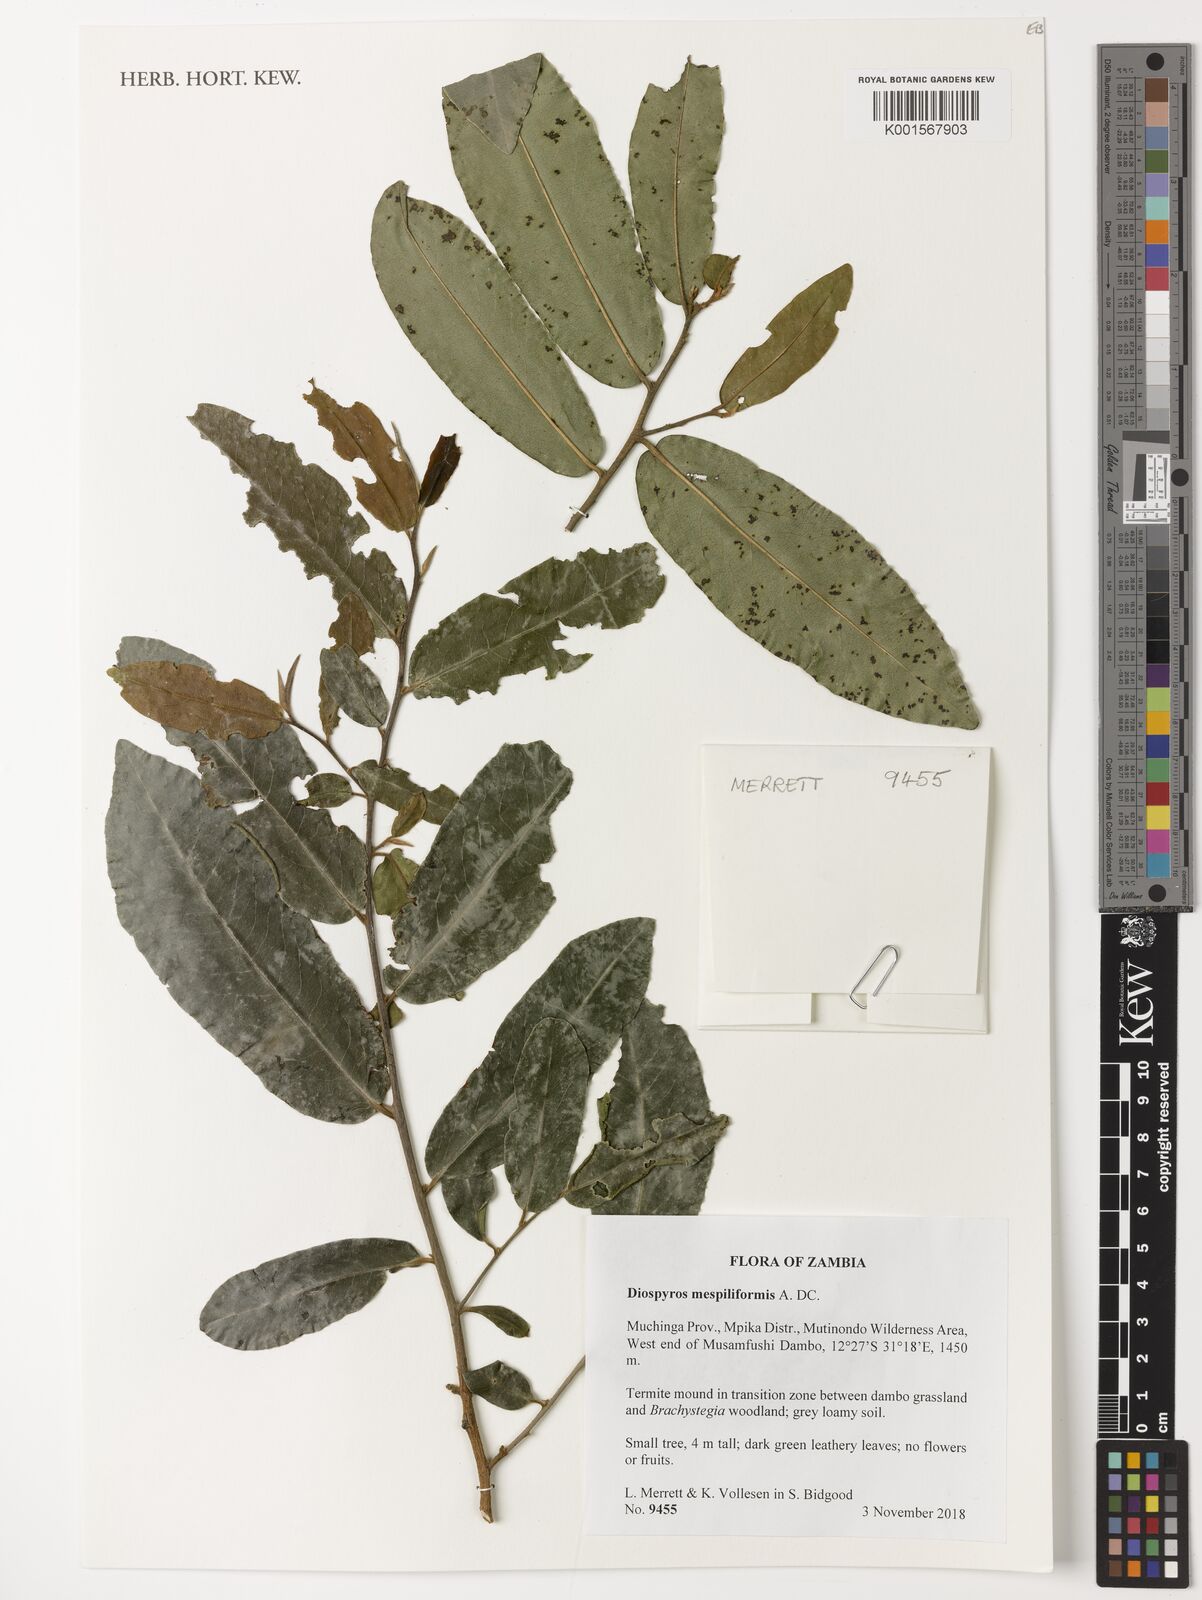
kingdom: Plantae
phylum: Tracheophyta
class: Magnoliopsida
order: Ericales
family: Ebenaceae
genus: Diospyros
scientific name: Diospyros mespiliformis
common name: Ebony diospyros
